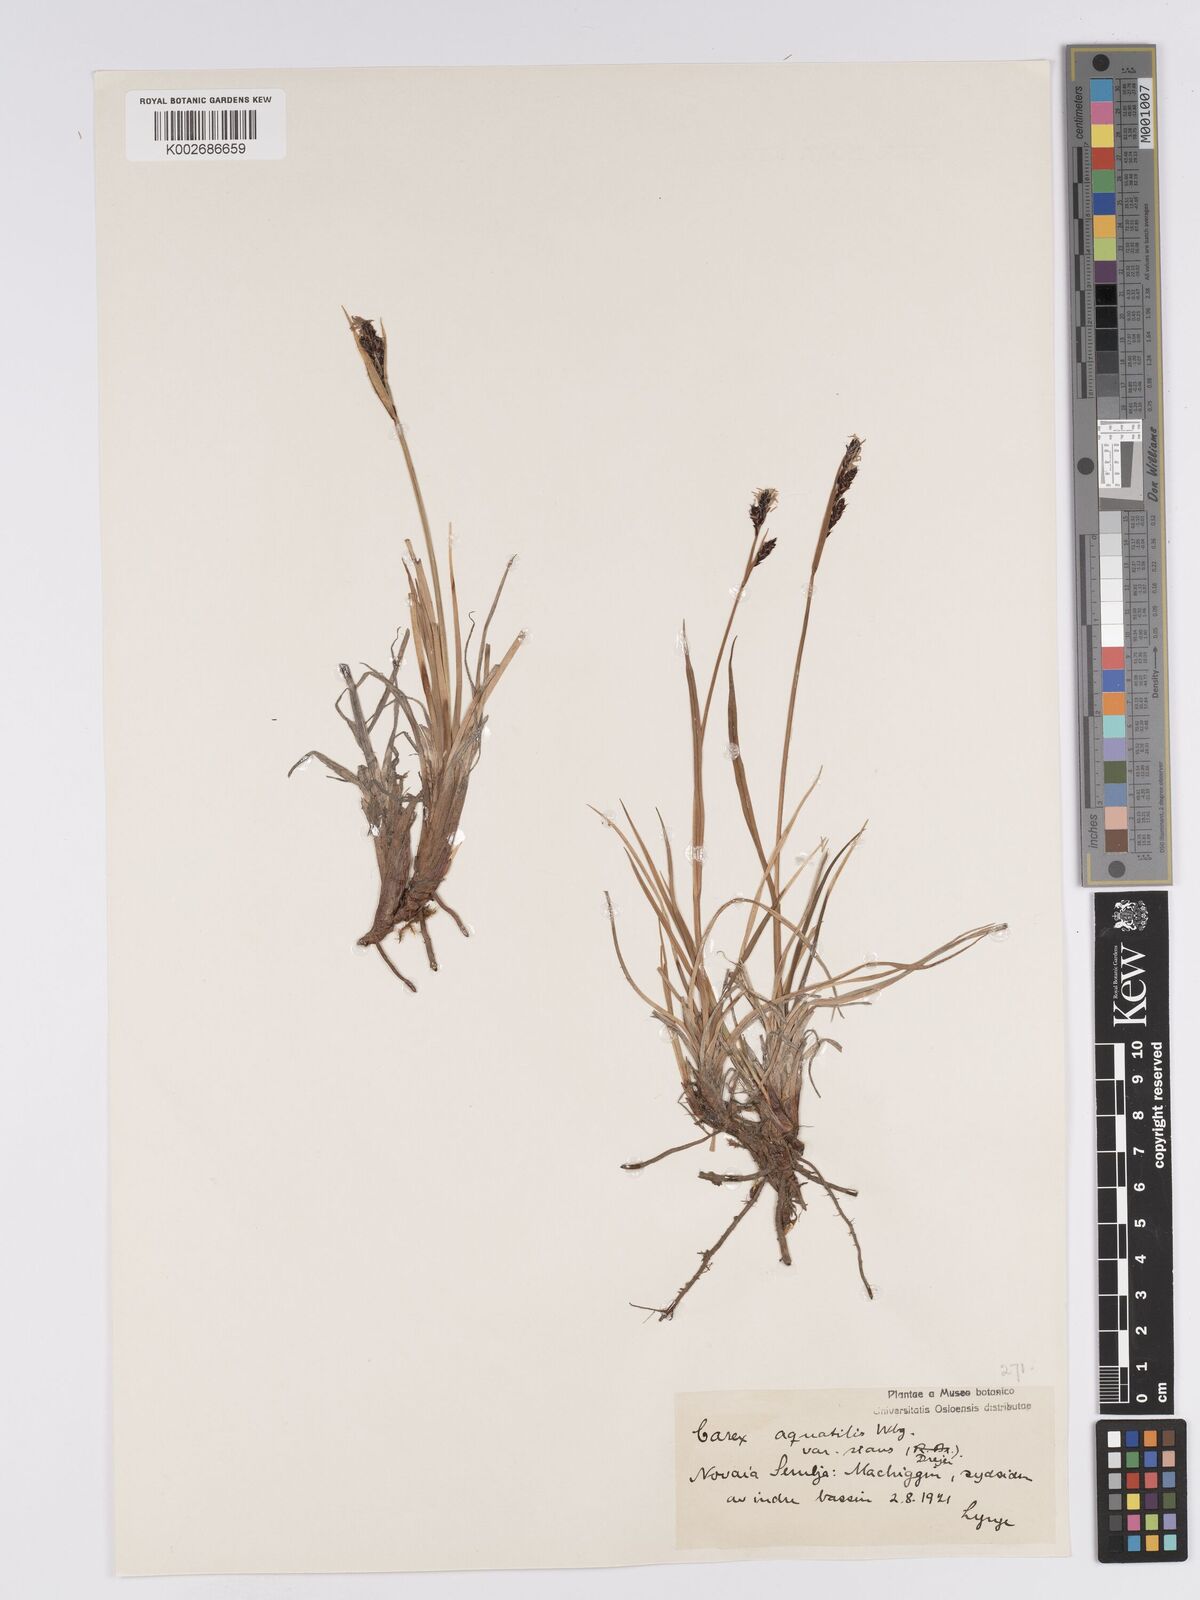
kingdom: Plantae
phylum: Tracheophyta
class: Liliopsida
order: Poales
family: Cyperaceae
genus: Carex
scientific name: Carex aquatilis
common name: Water sedge
